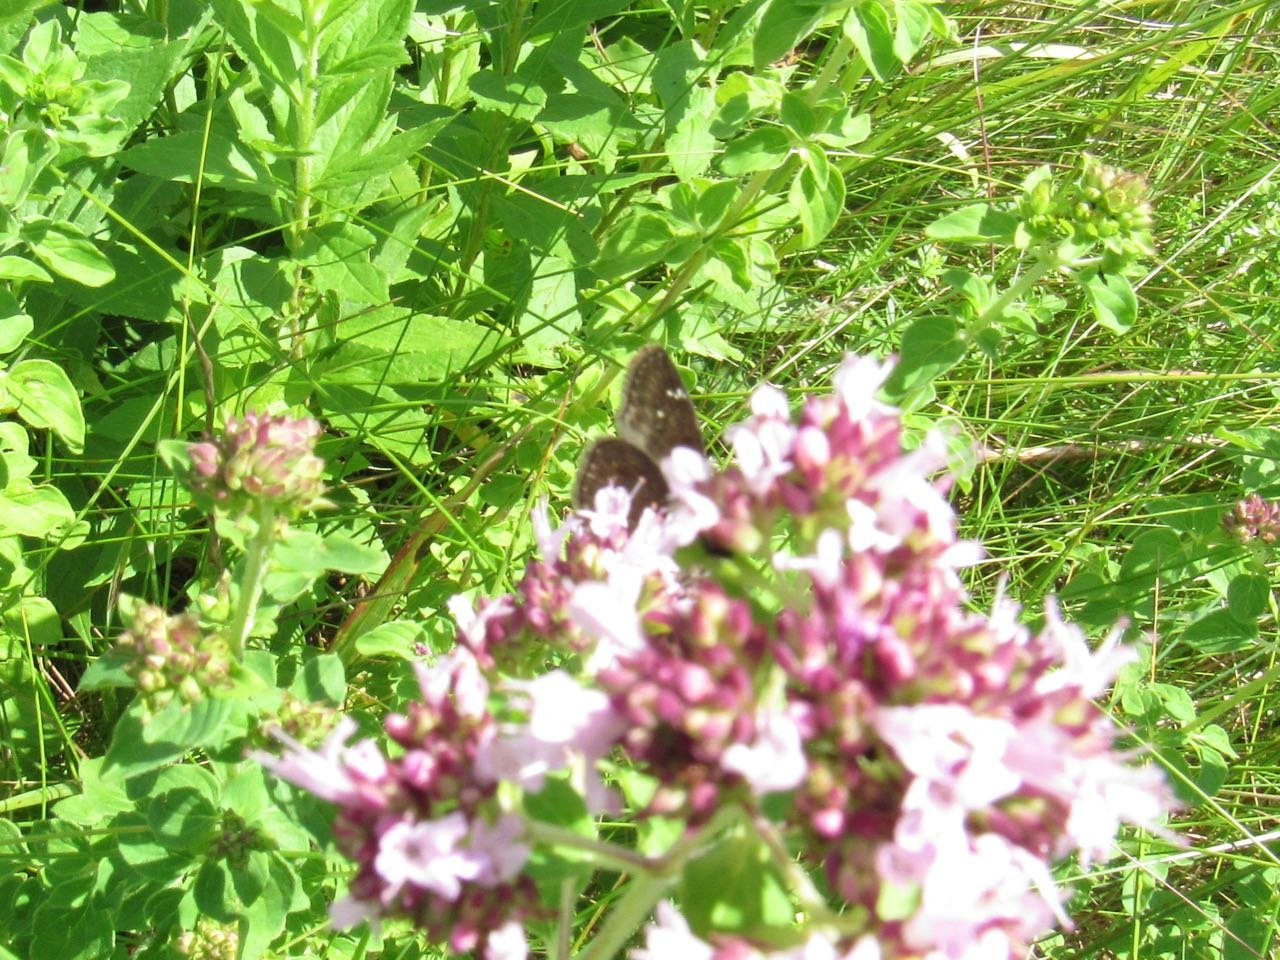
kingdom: Animalia
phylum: Arthropoda
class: Insecta
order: Lepidoptera
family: Hesperiidae
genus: Gesta
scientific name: Gesta
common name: Wild Indigo Duskywing
